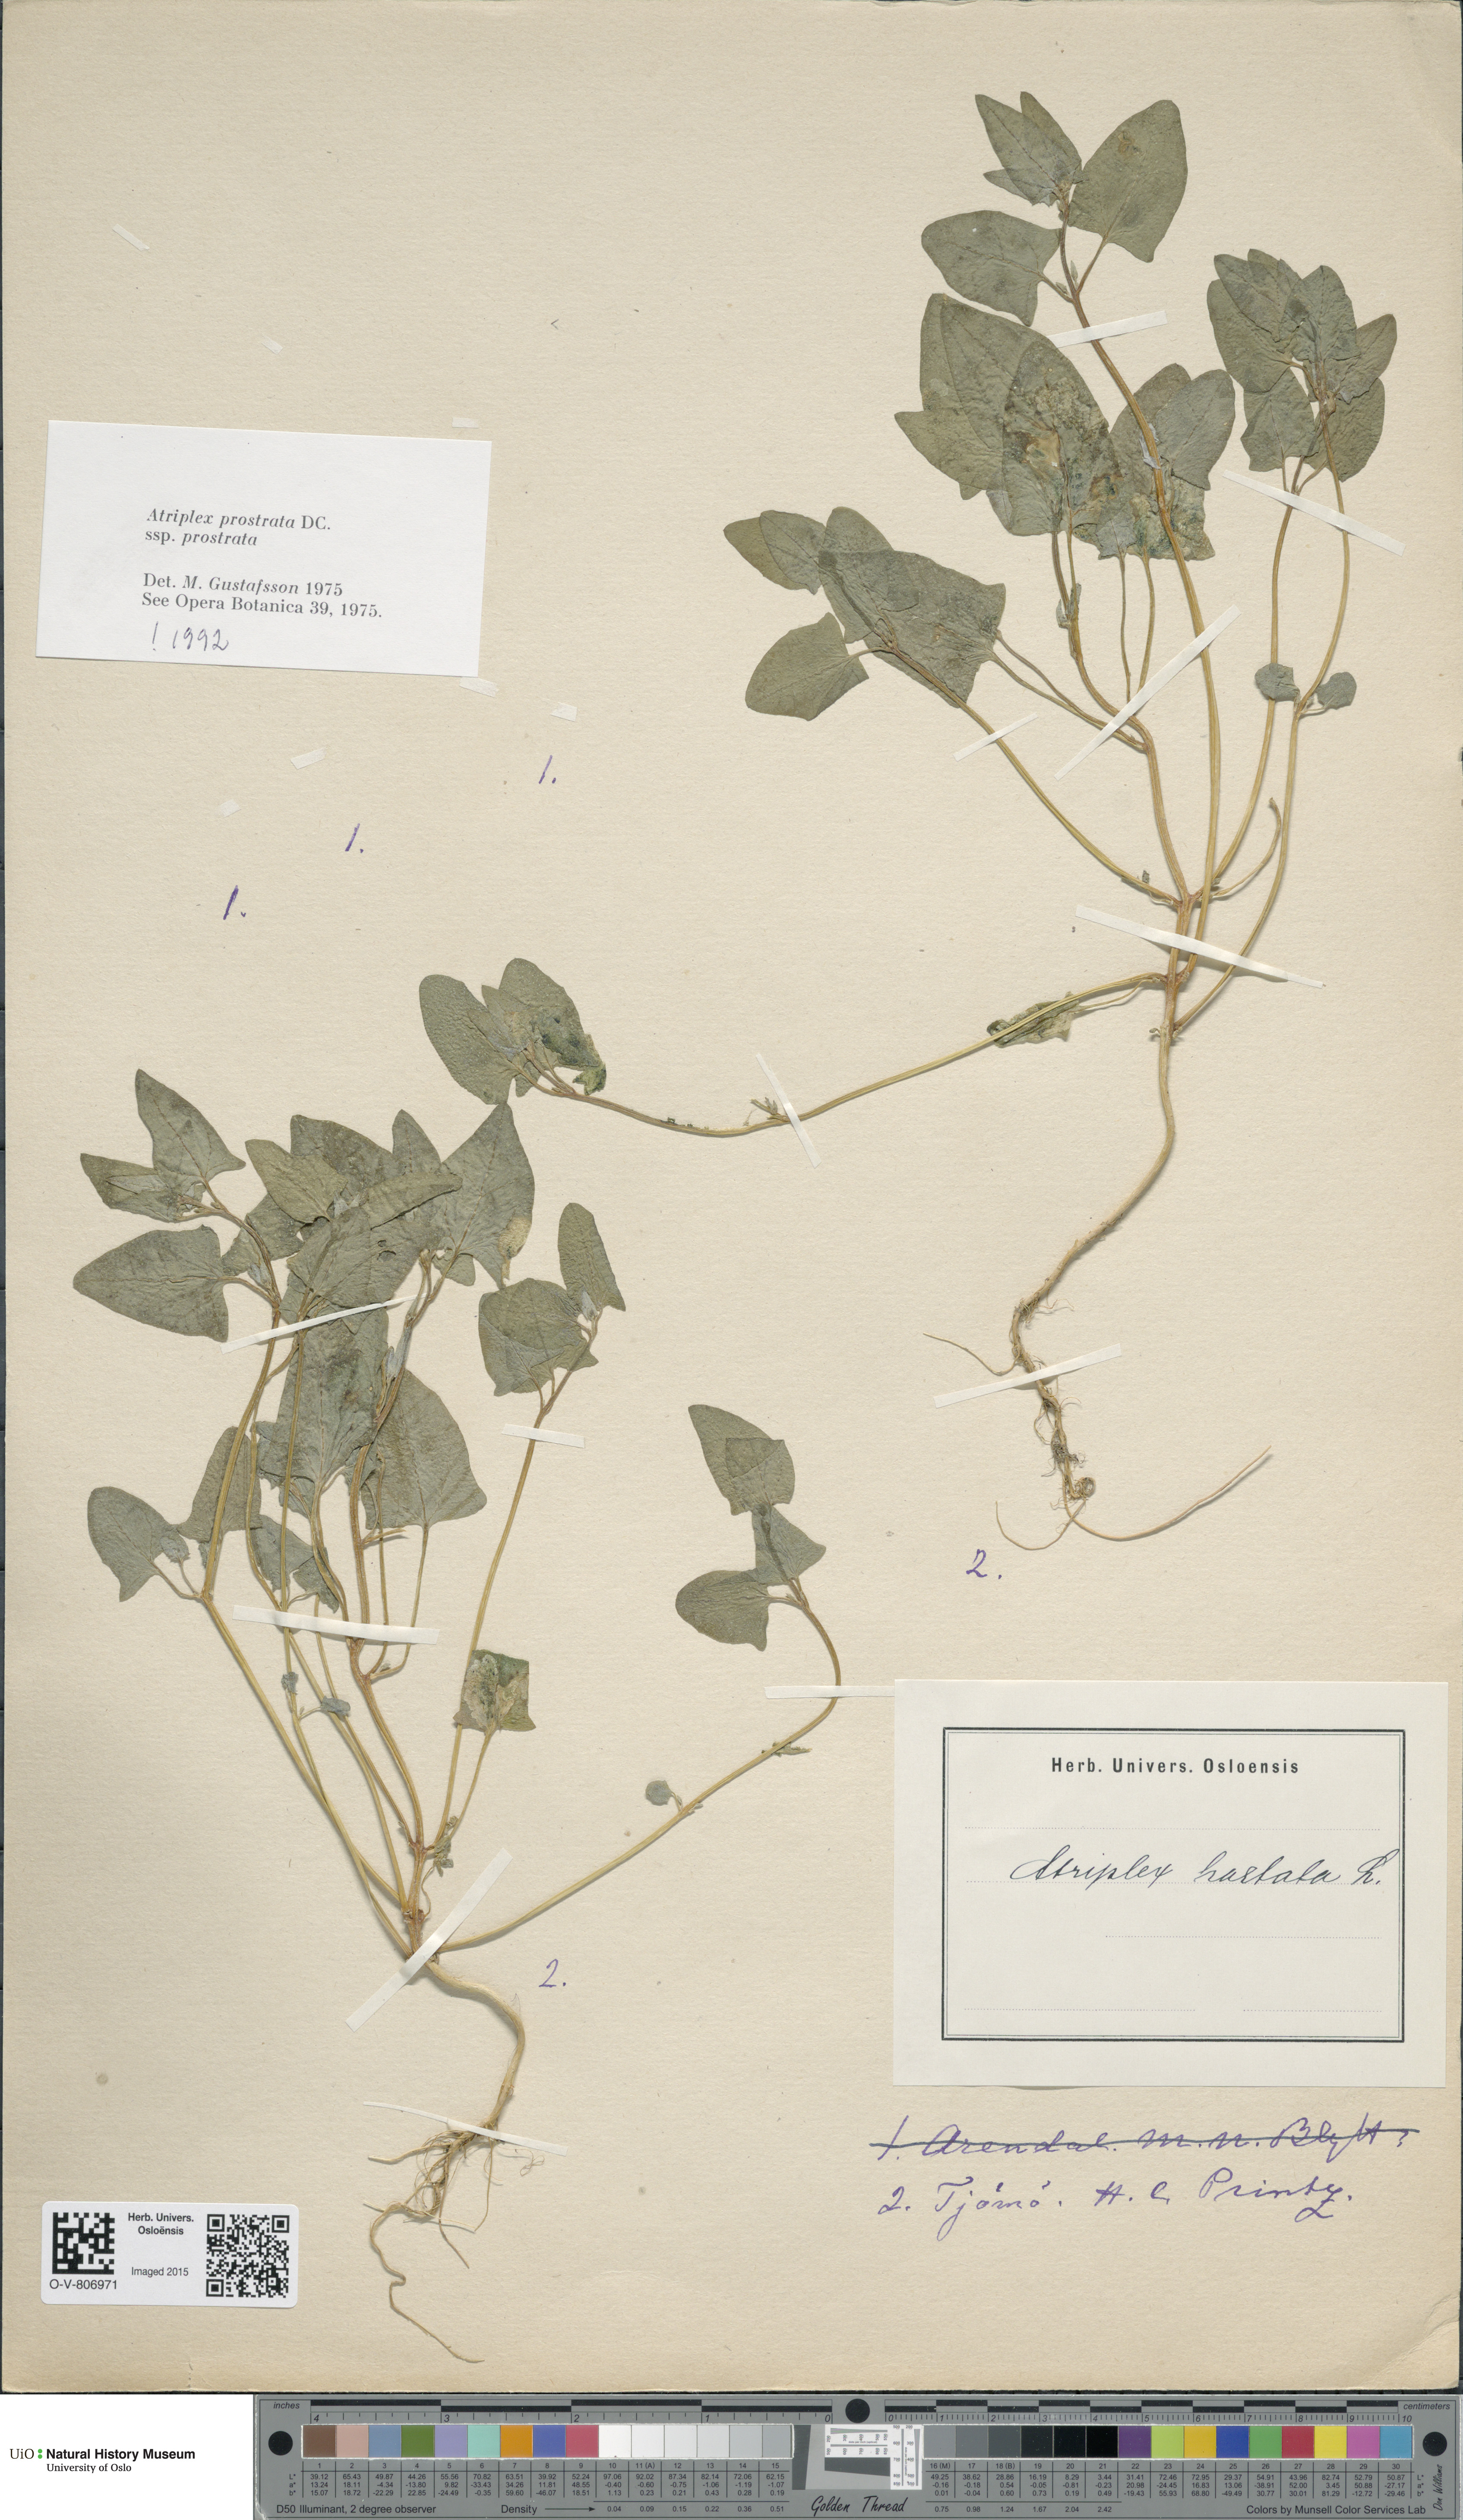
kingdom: Plantae
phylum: Tracheophyta
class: Magnoliopsida
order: Caryophyllales
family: Amaranthaceae
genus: Atriplex
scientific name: Atriplex prostrata
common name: Spear-leaved orache
